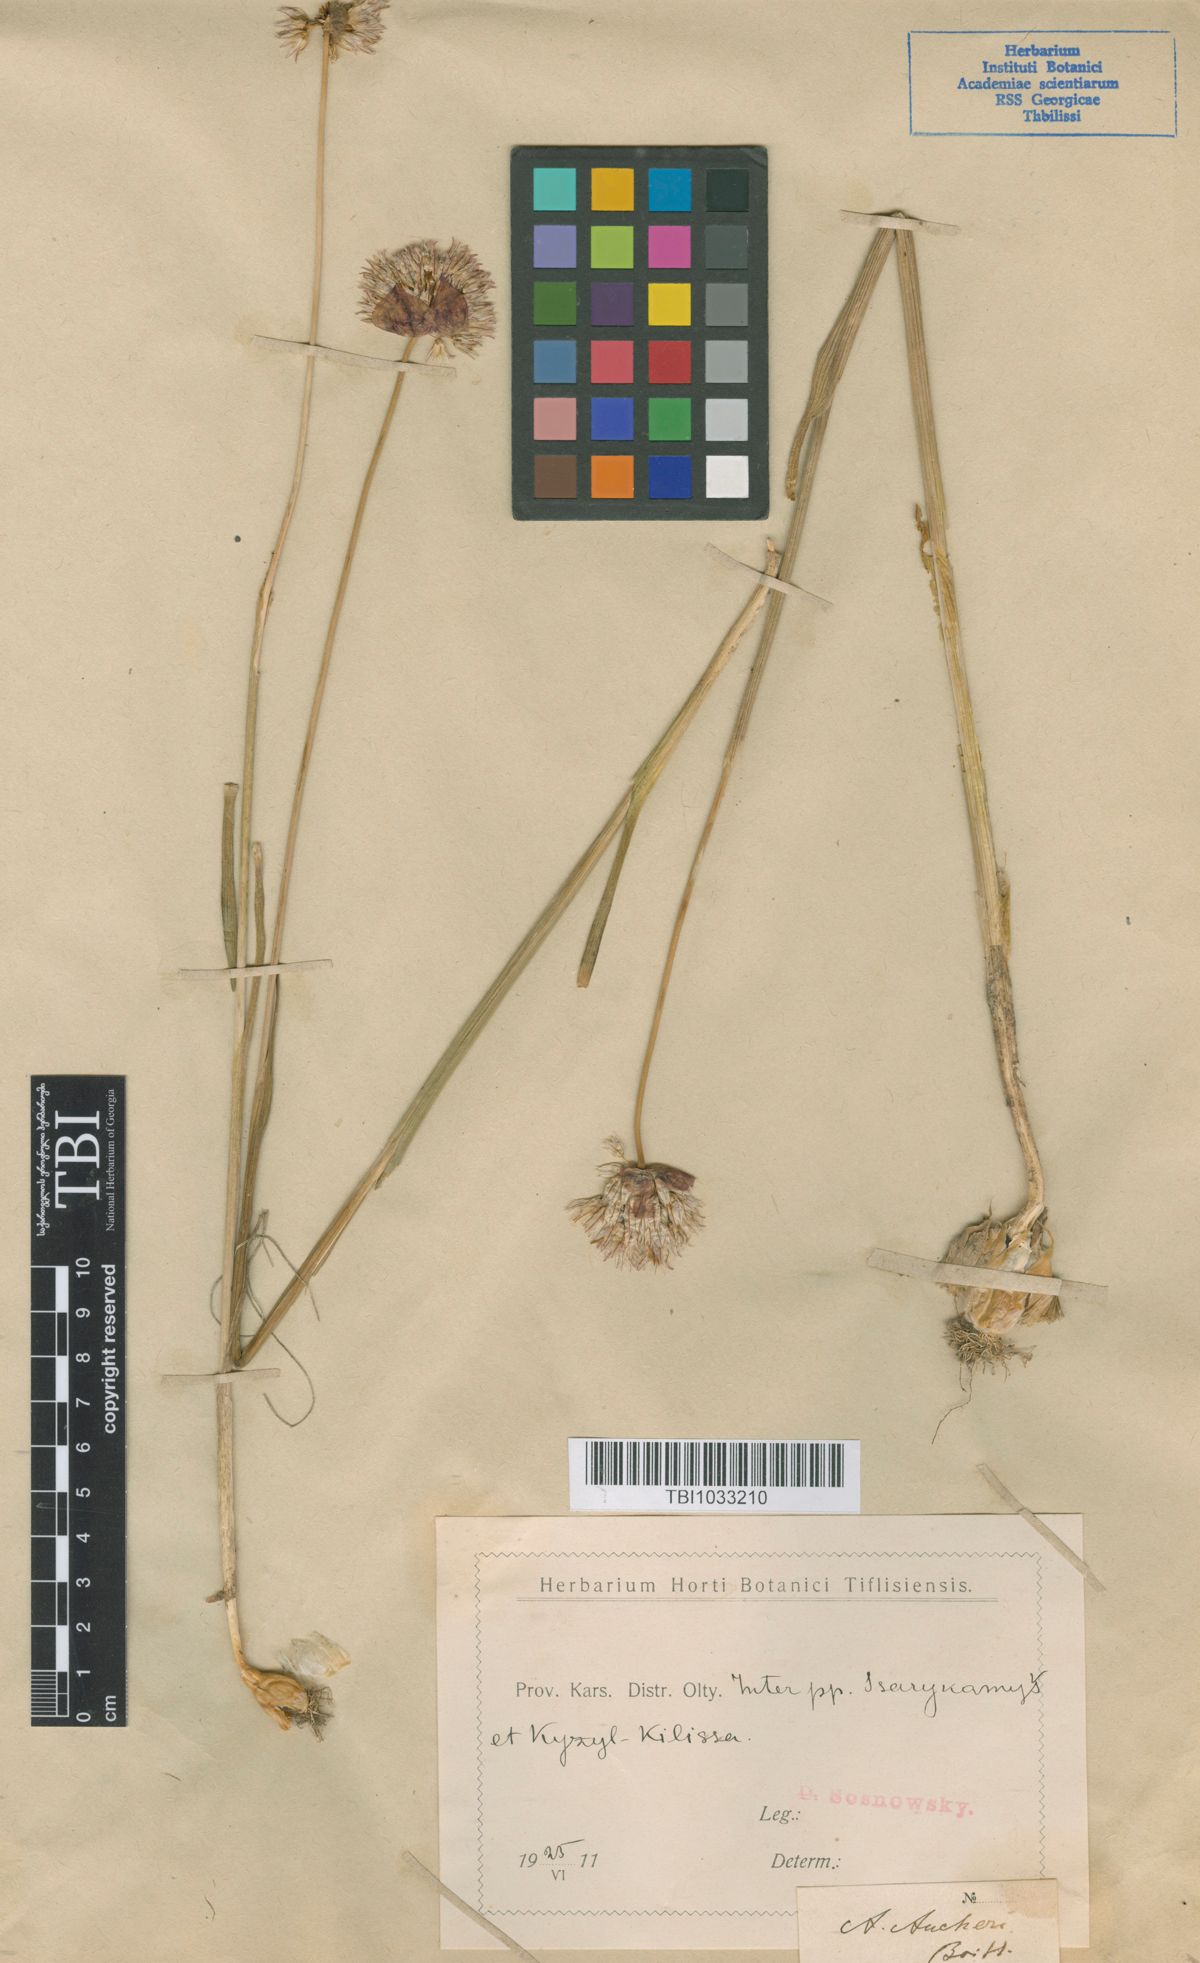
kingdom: Plantae
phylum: Tracheophyta
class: Liliopsida
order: Asparagales
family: Amaryllidaceae
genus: Allium
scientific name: Allium aucheri
